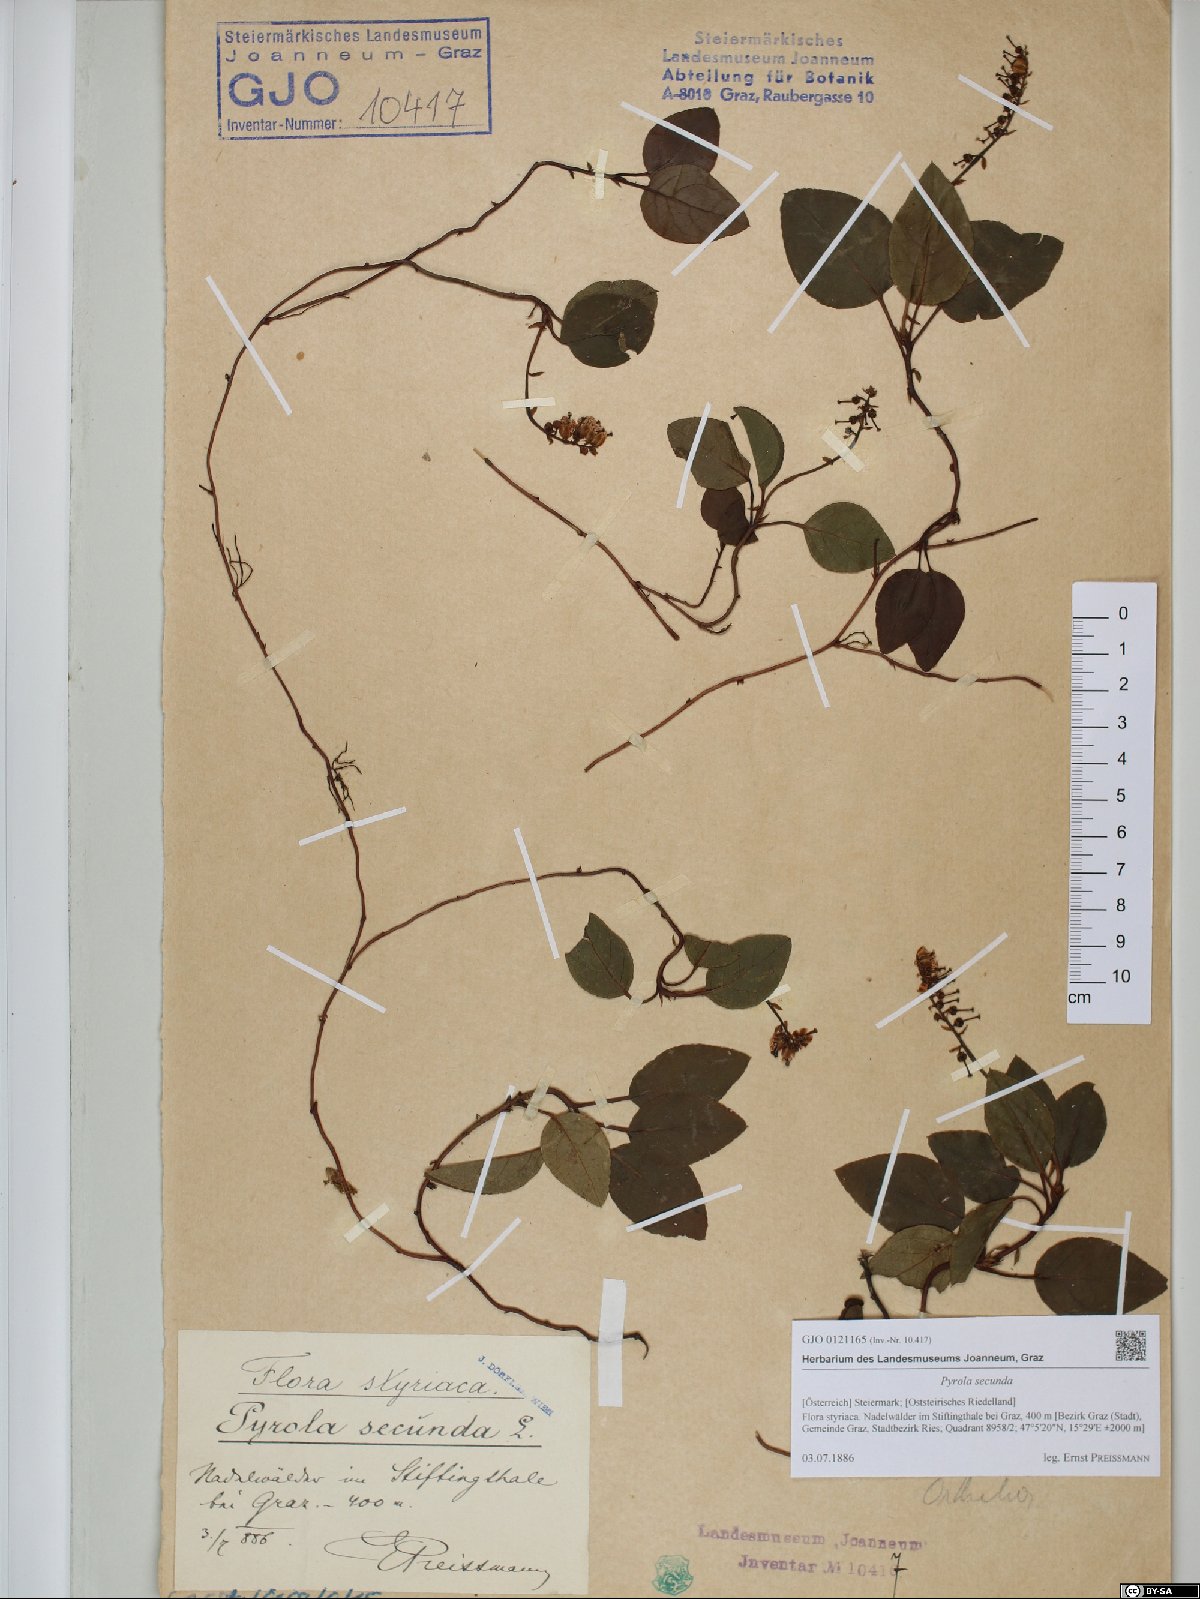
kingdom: Plantae
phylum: Tracheophyta
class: Magnoliopsida
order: Ericales
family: Ericaceae
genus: Orthilia
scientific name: Orthilia secunda
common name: One-sided orthilia
